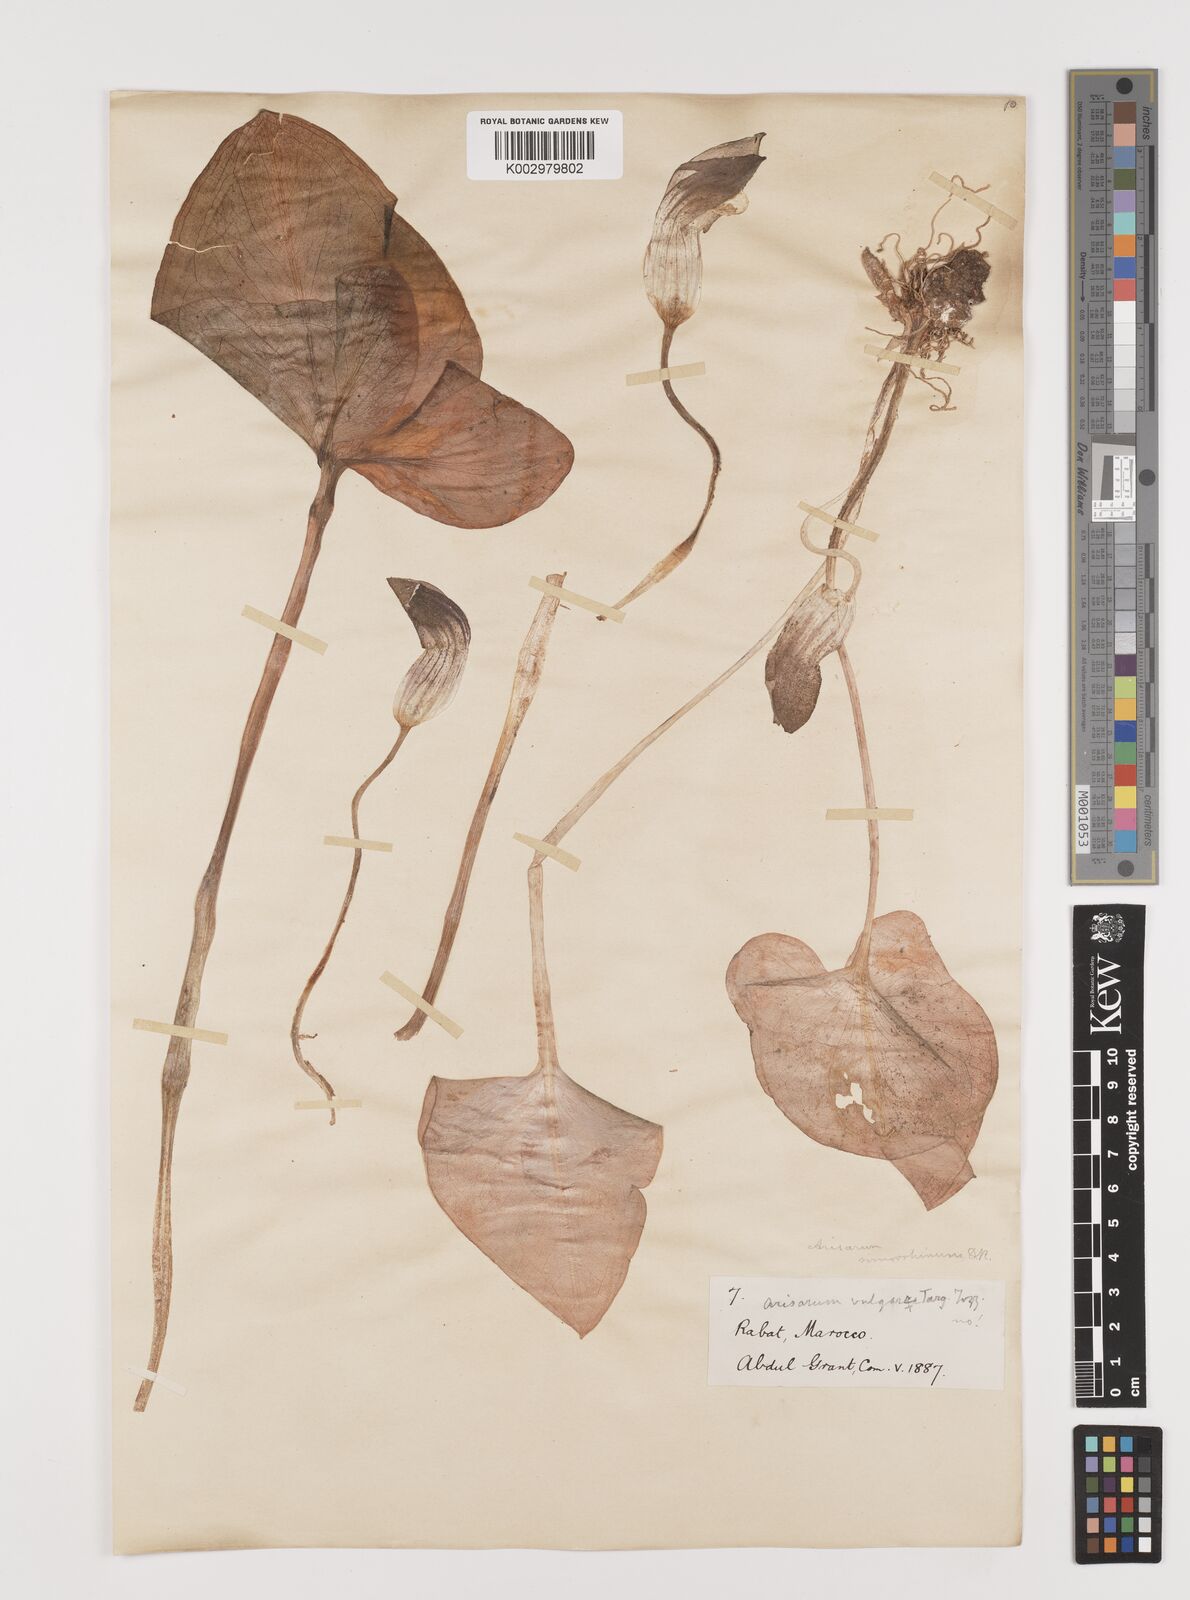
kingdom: Plantae
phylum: Tracheophyta
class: Liliopsida
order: Alismatales
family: Araceae
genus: Arisarum
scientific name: Arisarum simorrhinum
